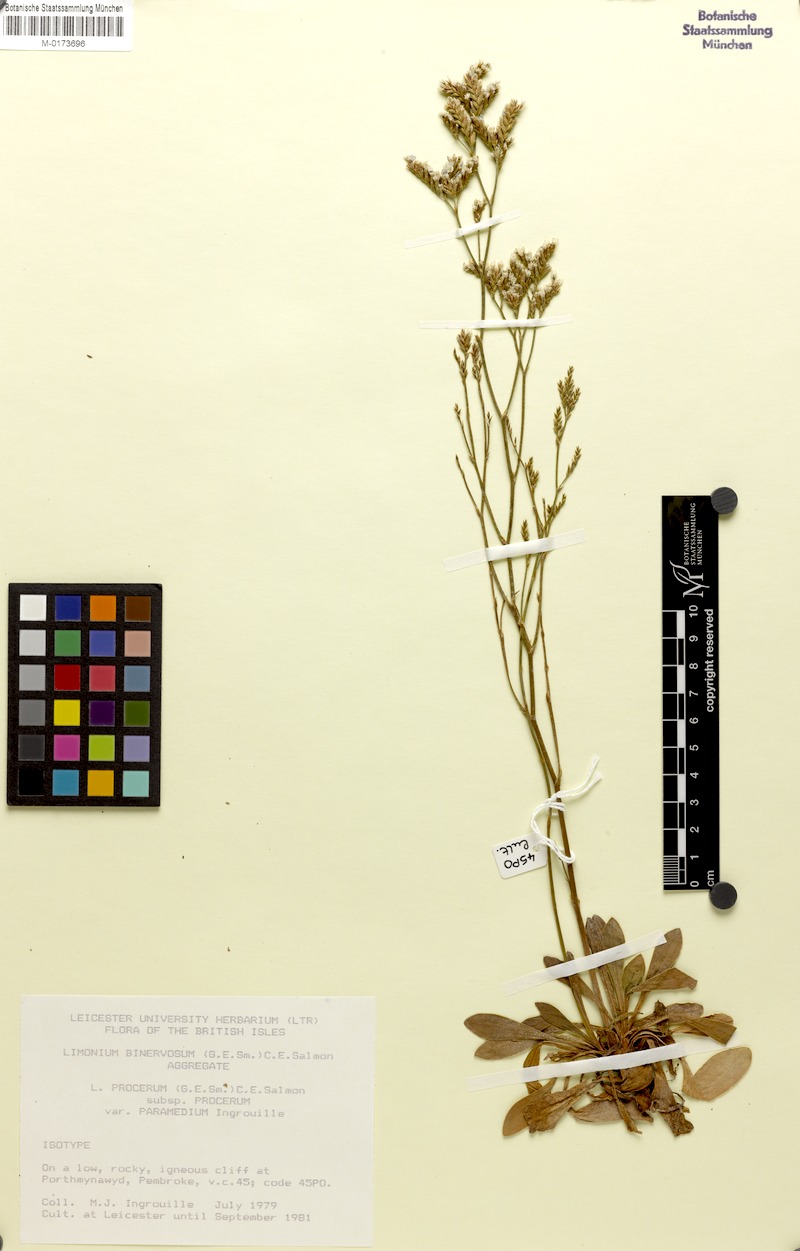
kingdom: Plantae
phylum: Tracheophyta
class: Magnoliopsida
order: Caryophyllales
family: Plumbaginaceae
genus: Limonium
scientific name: Limonium procerum
